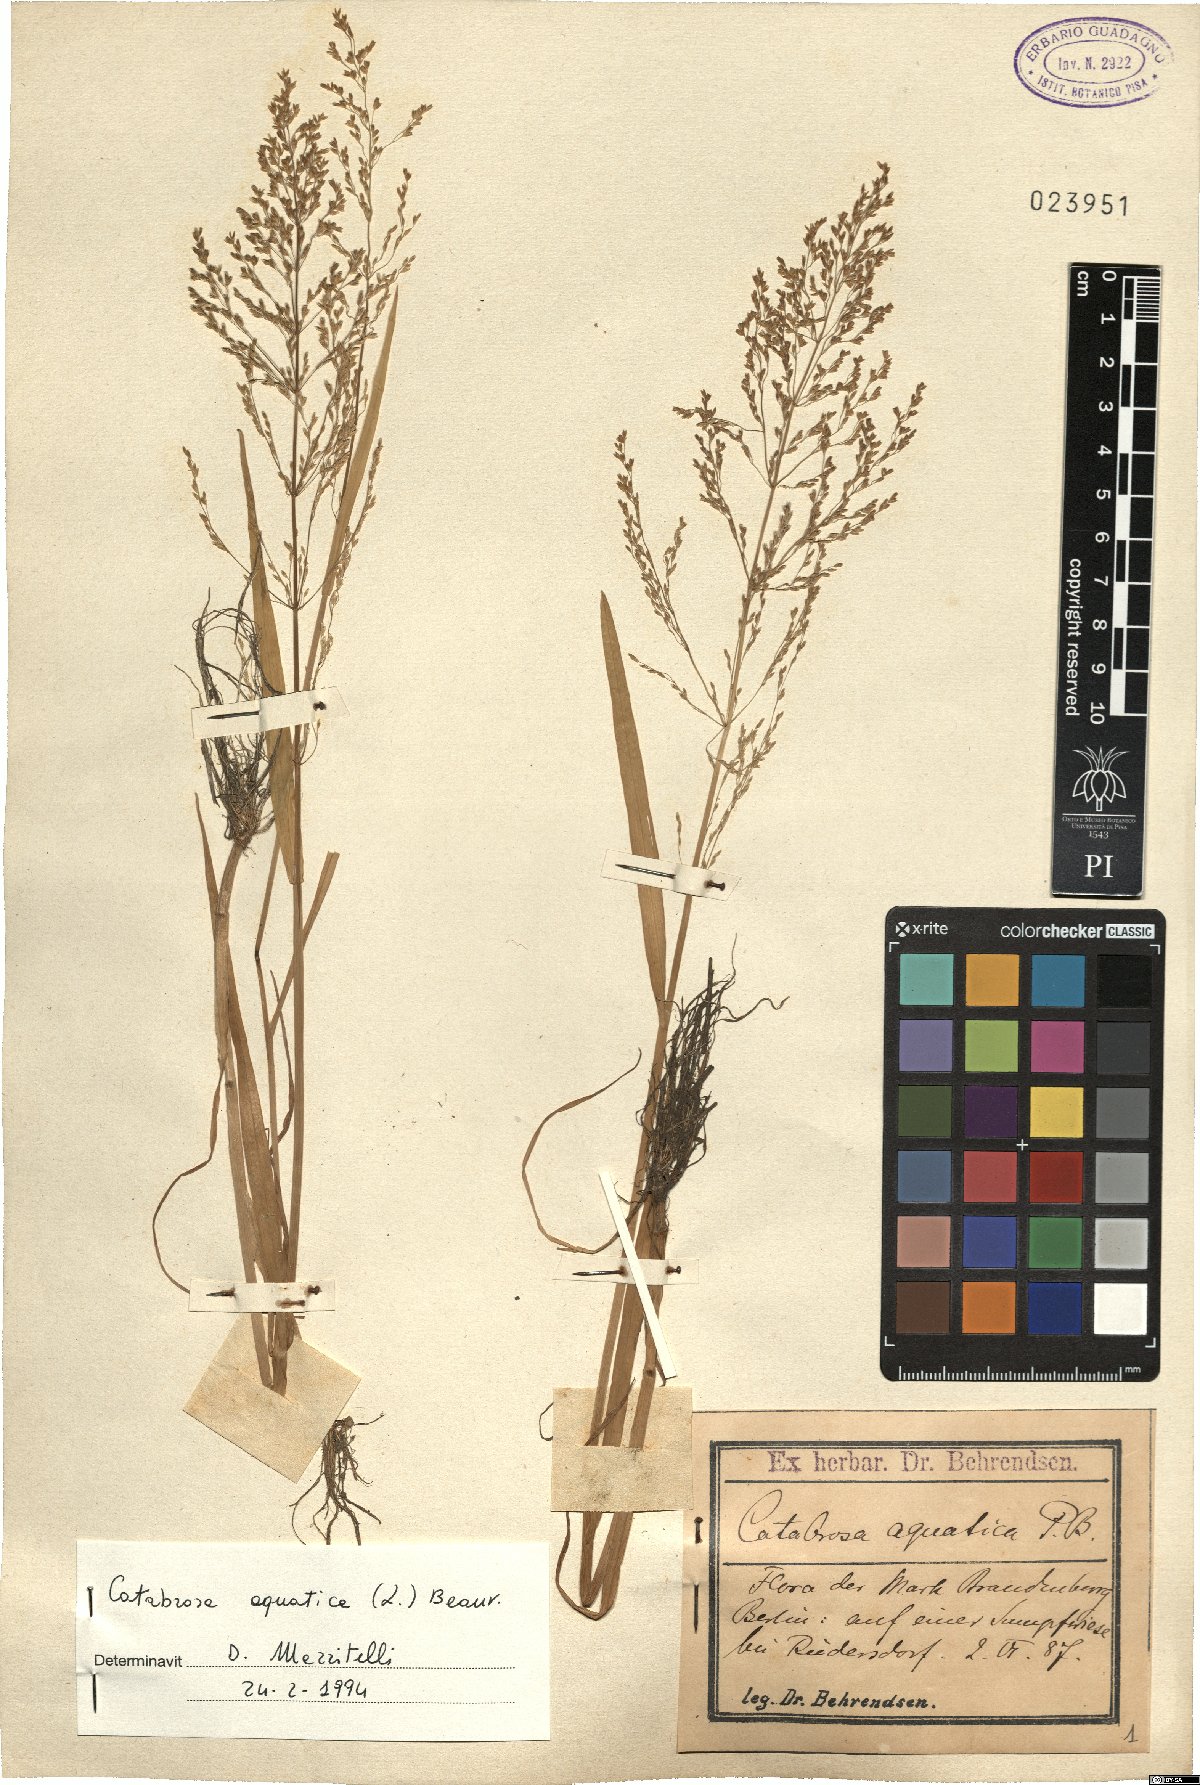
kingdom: Plantae
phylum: Tracheophyta
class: Liliopsida
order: Poales
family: Poaceae
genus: Catabrosa
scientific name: Catabrosa aquatica
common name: Whorl-grass
